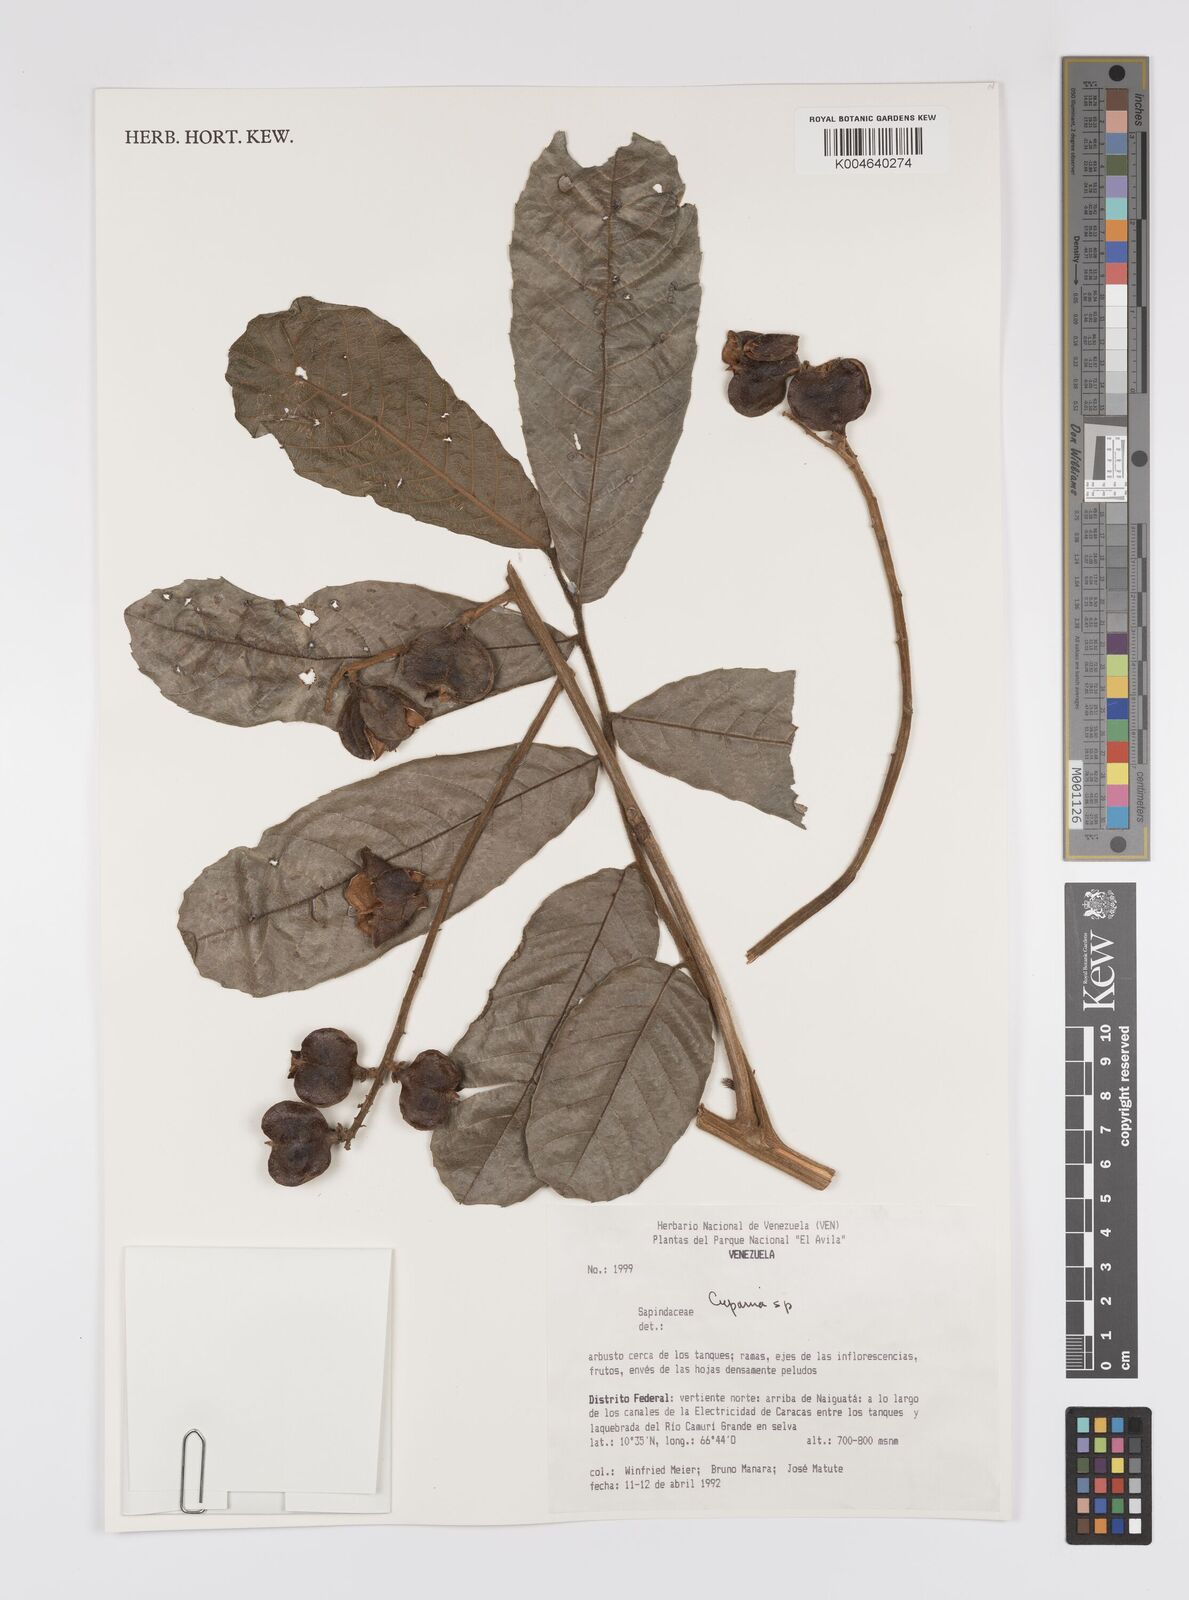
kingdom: Plantae
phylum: Tracheophyta
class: Magnoliopsida
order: Sapindales
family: Sapindaceae
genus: Cupania
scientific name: Cupania
